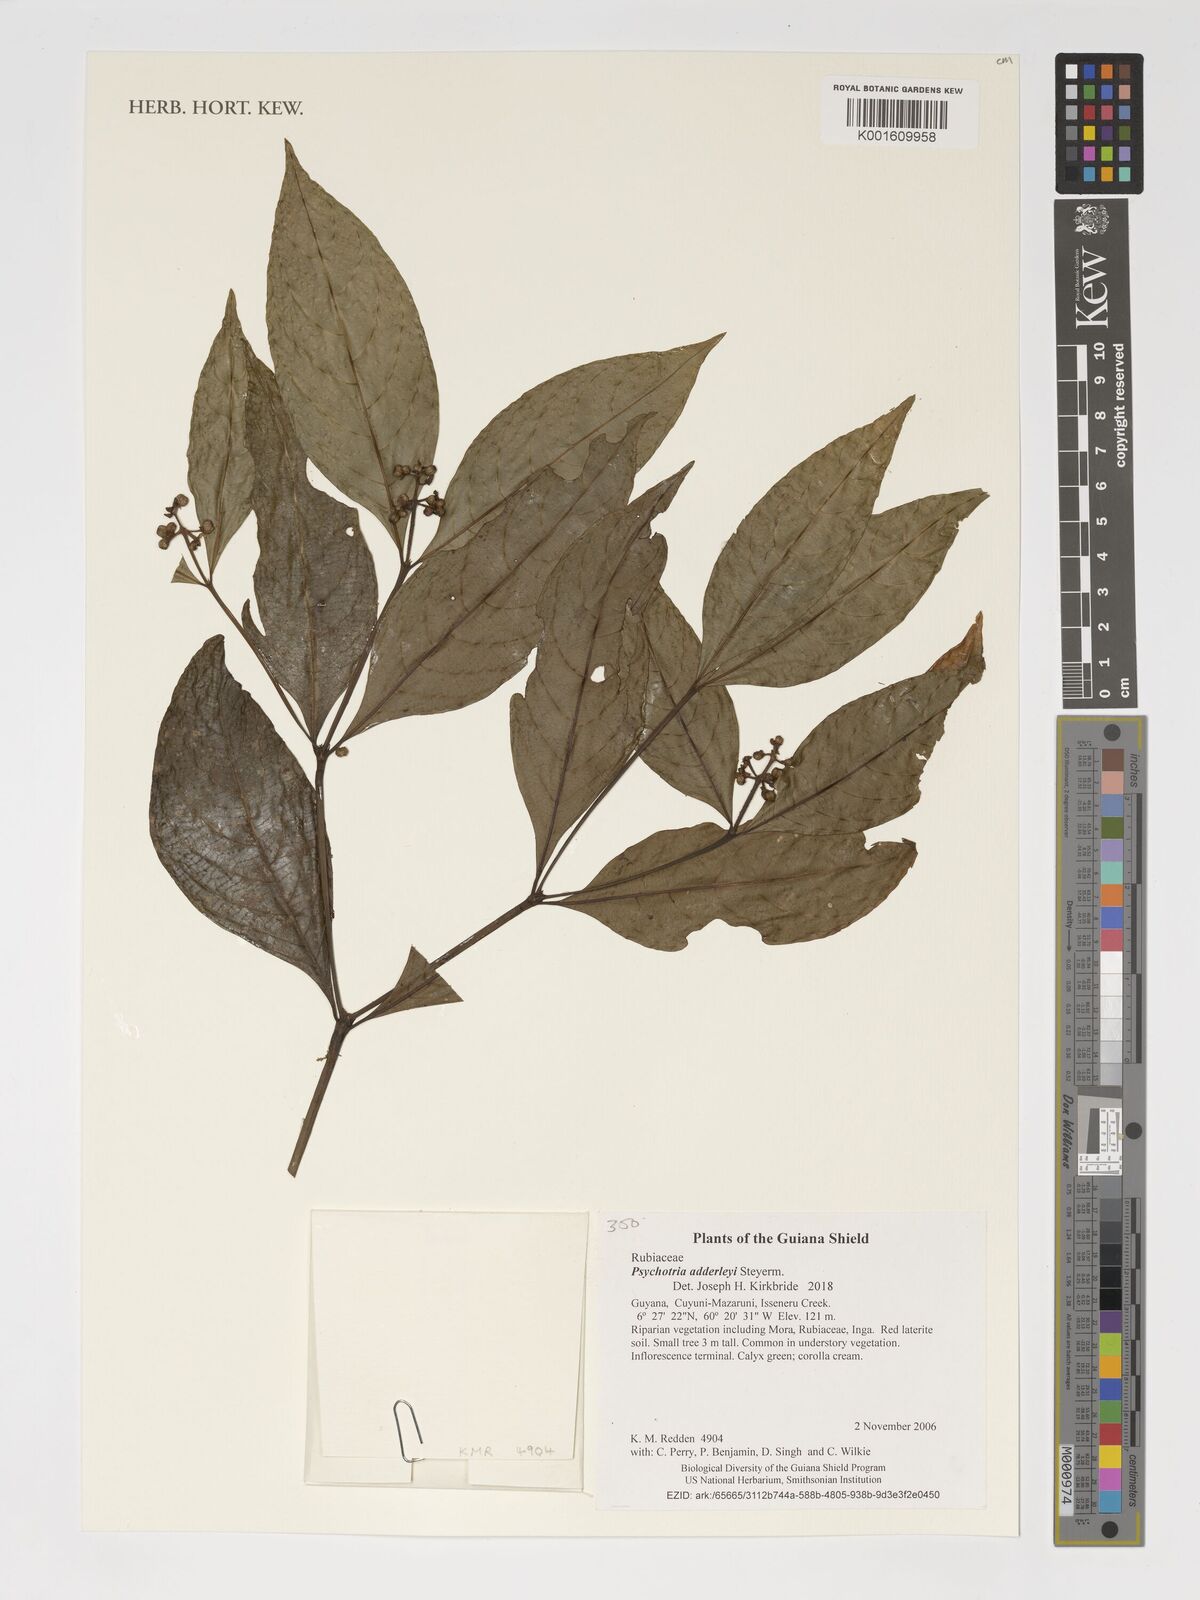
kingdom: Plantae
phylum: Tracheophyta
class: Magnoliopsida
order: Gentianales
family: Rubiaceae
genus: Palicourea
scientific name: Palicourea adderleyi
